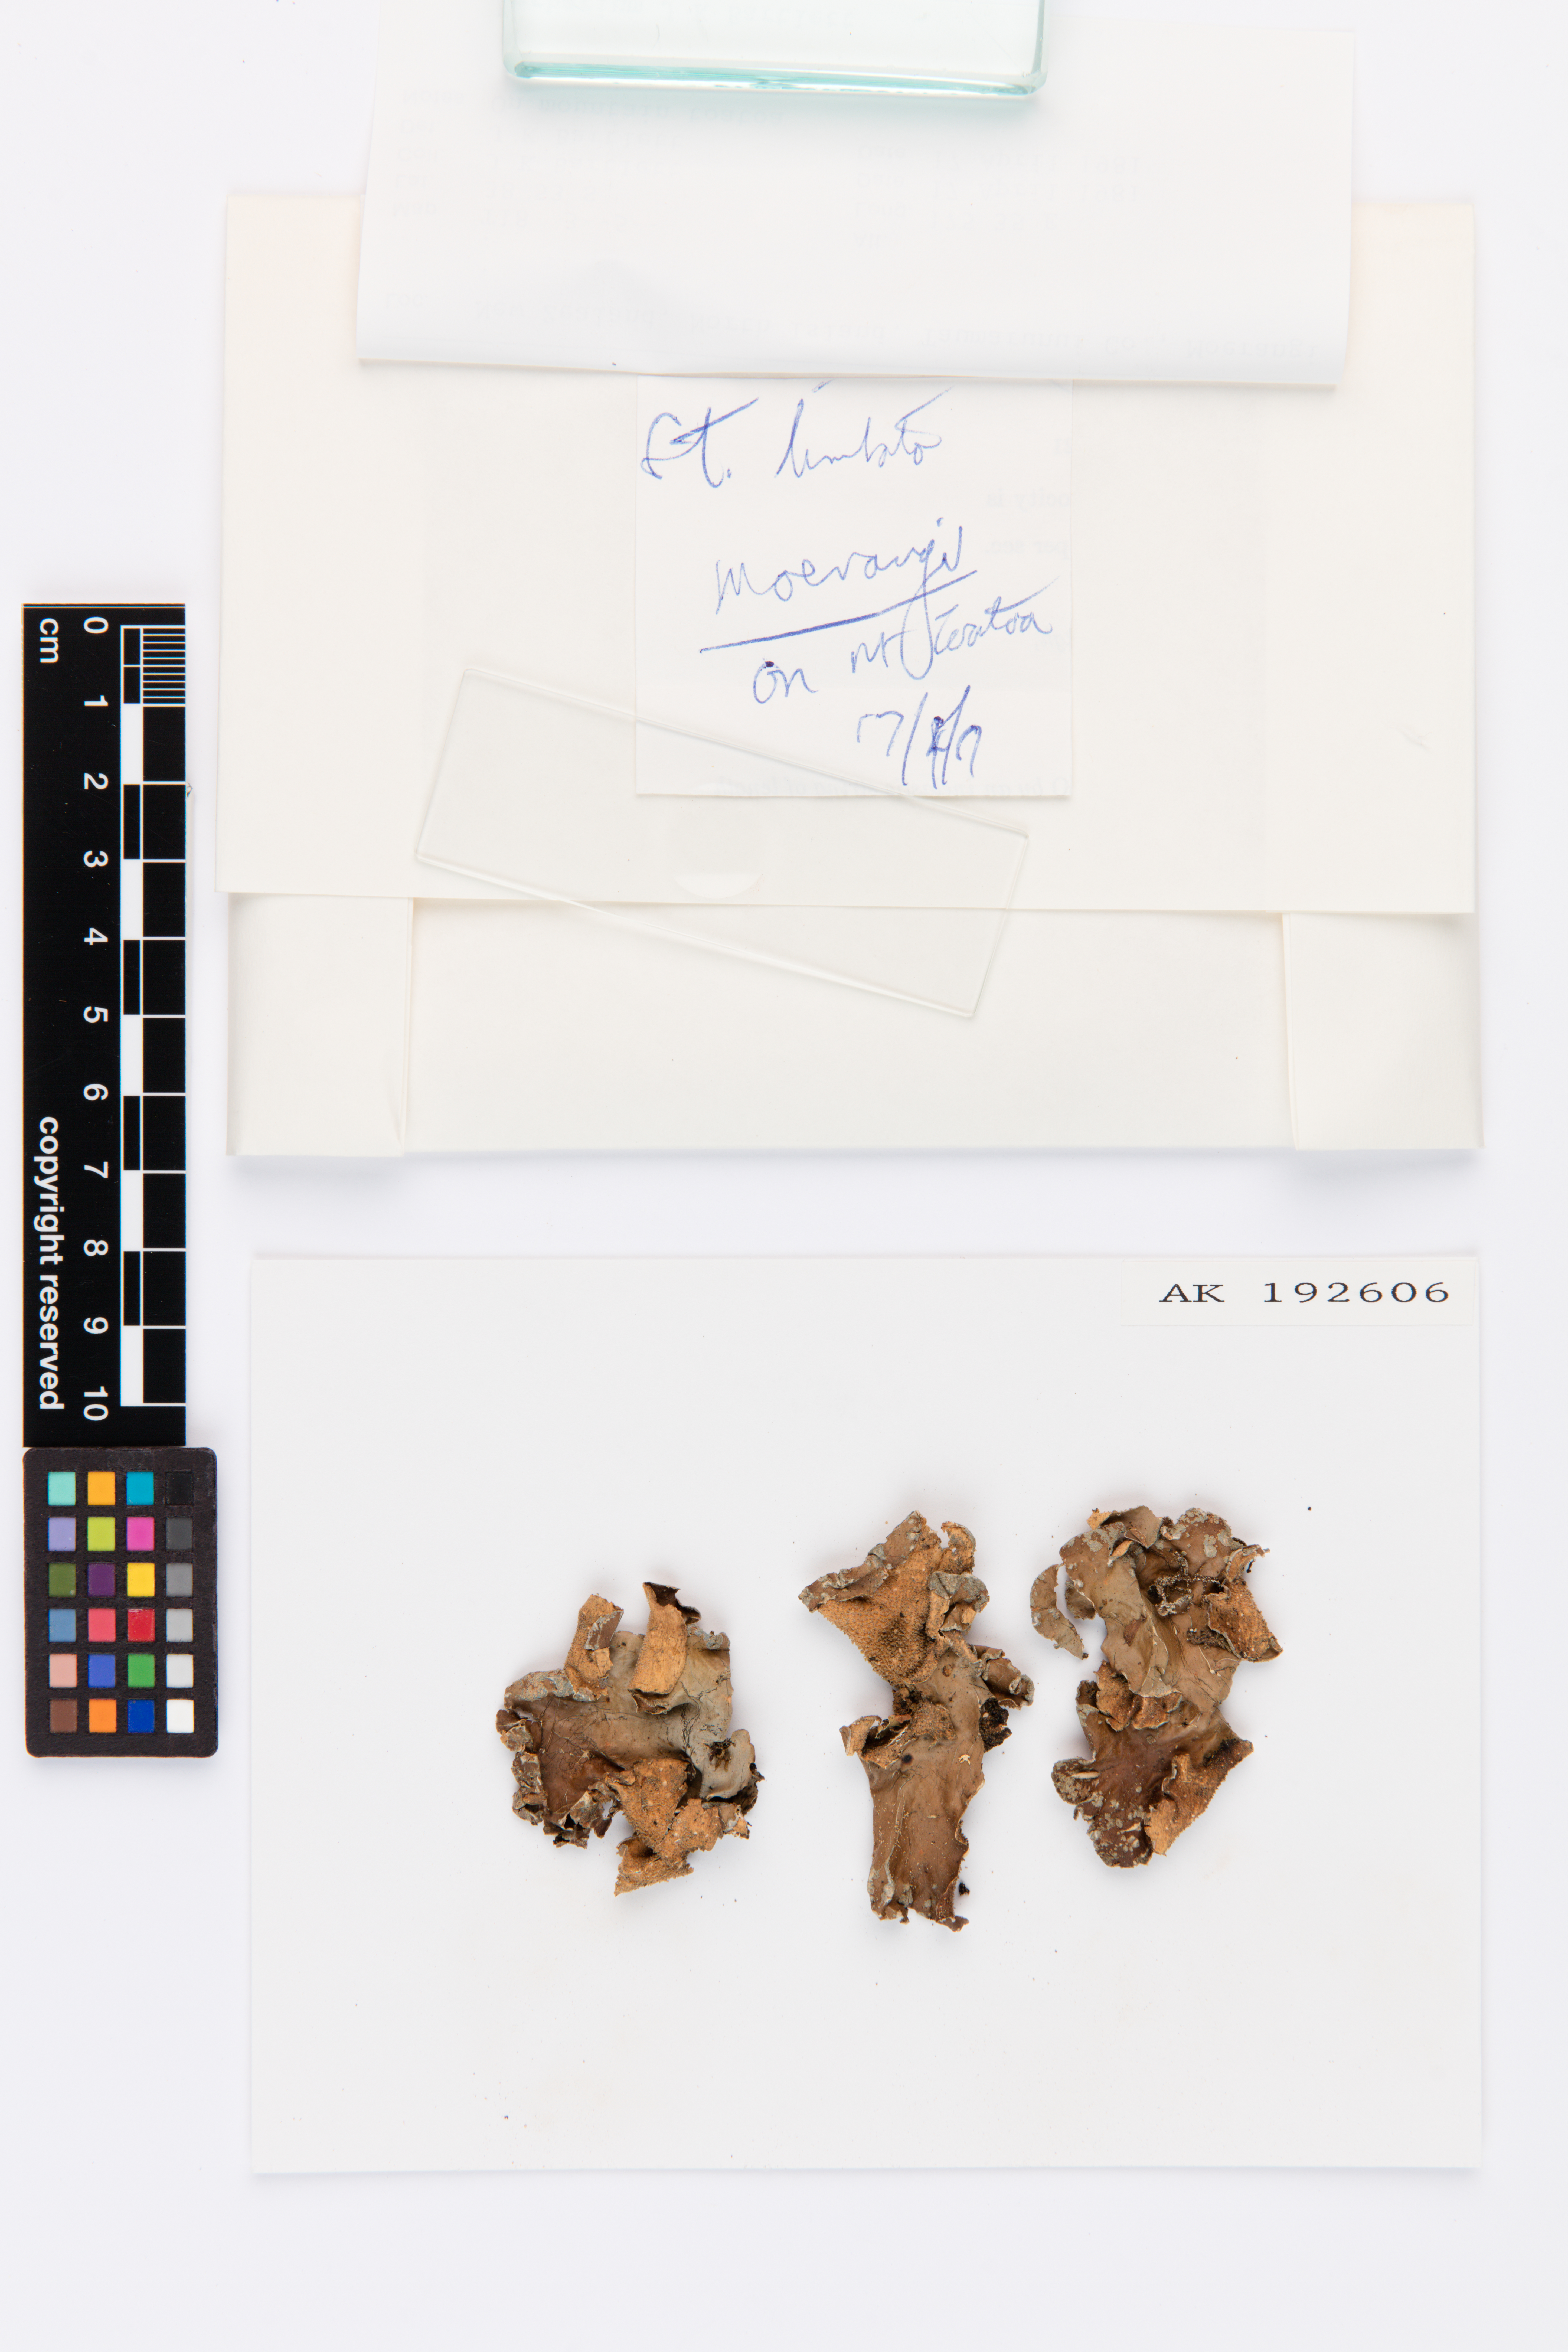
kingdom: Fungi
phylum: Ascomycota
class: Lecanoromycetes
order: Peltigerales
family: Lobariaceae
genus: Sticta
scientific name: Sticta limbata
